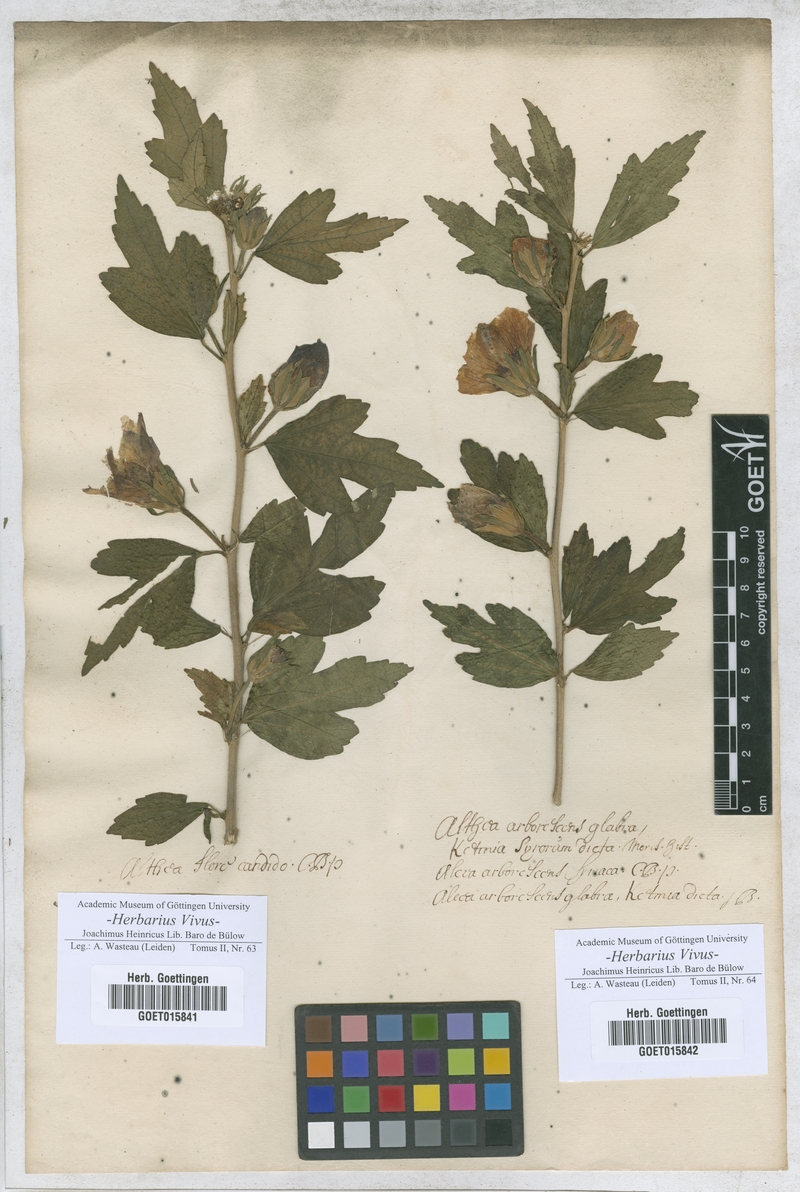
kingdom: Plantae
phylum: Tracheophyta
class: Magnoliopsida
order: Malvales
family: Malvaceae
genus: Althaea
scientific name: Althaea
